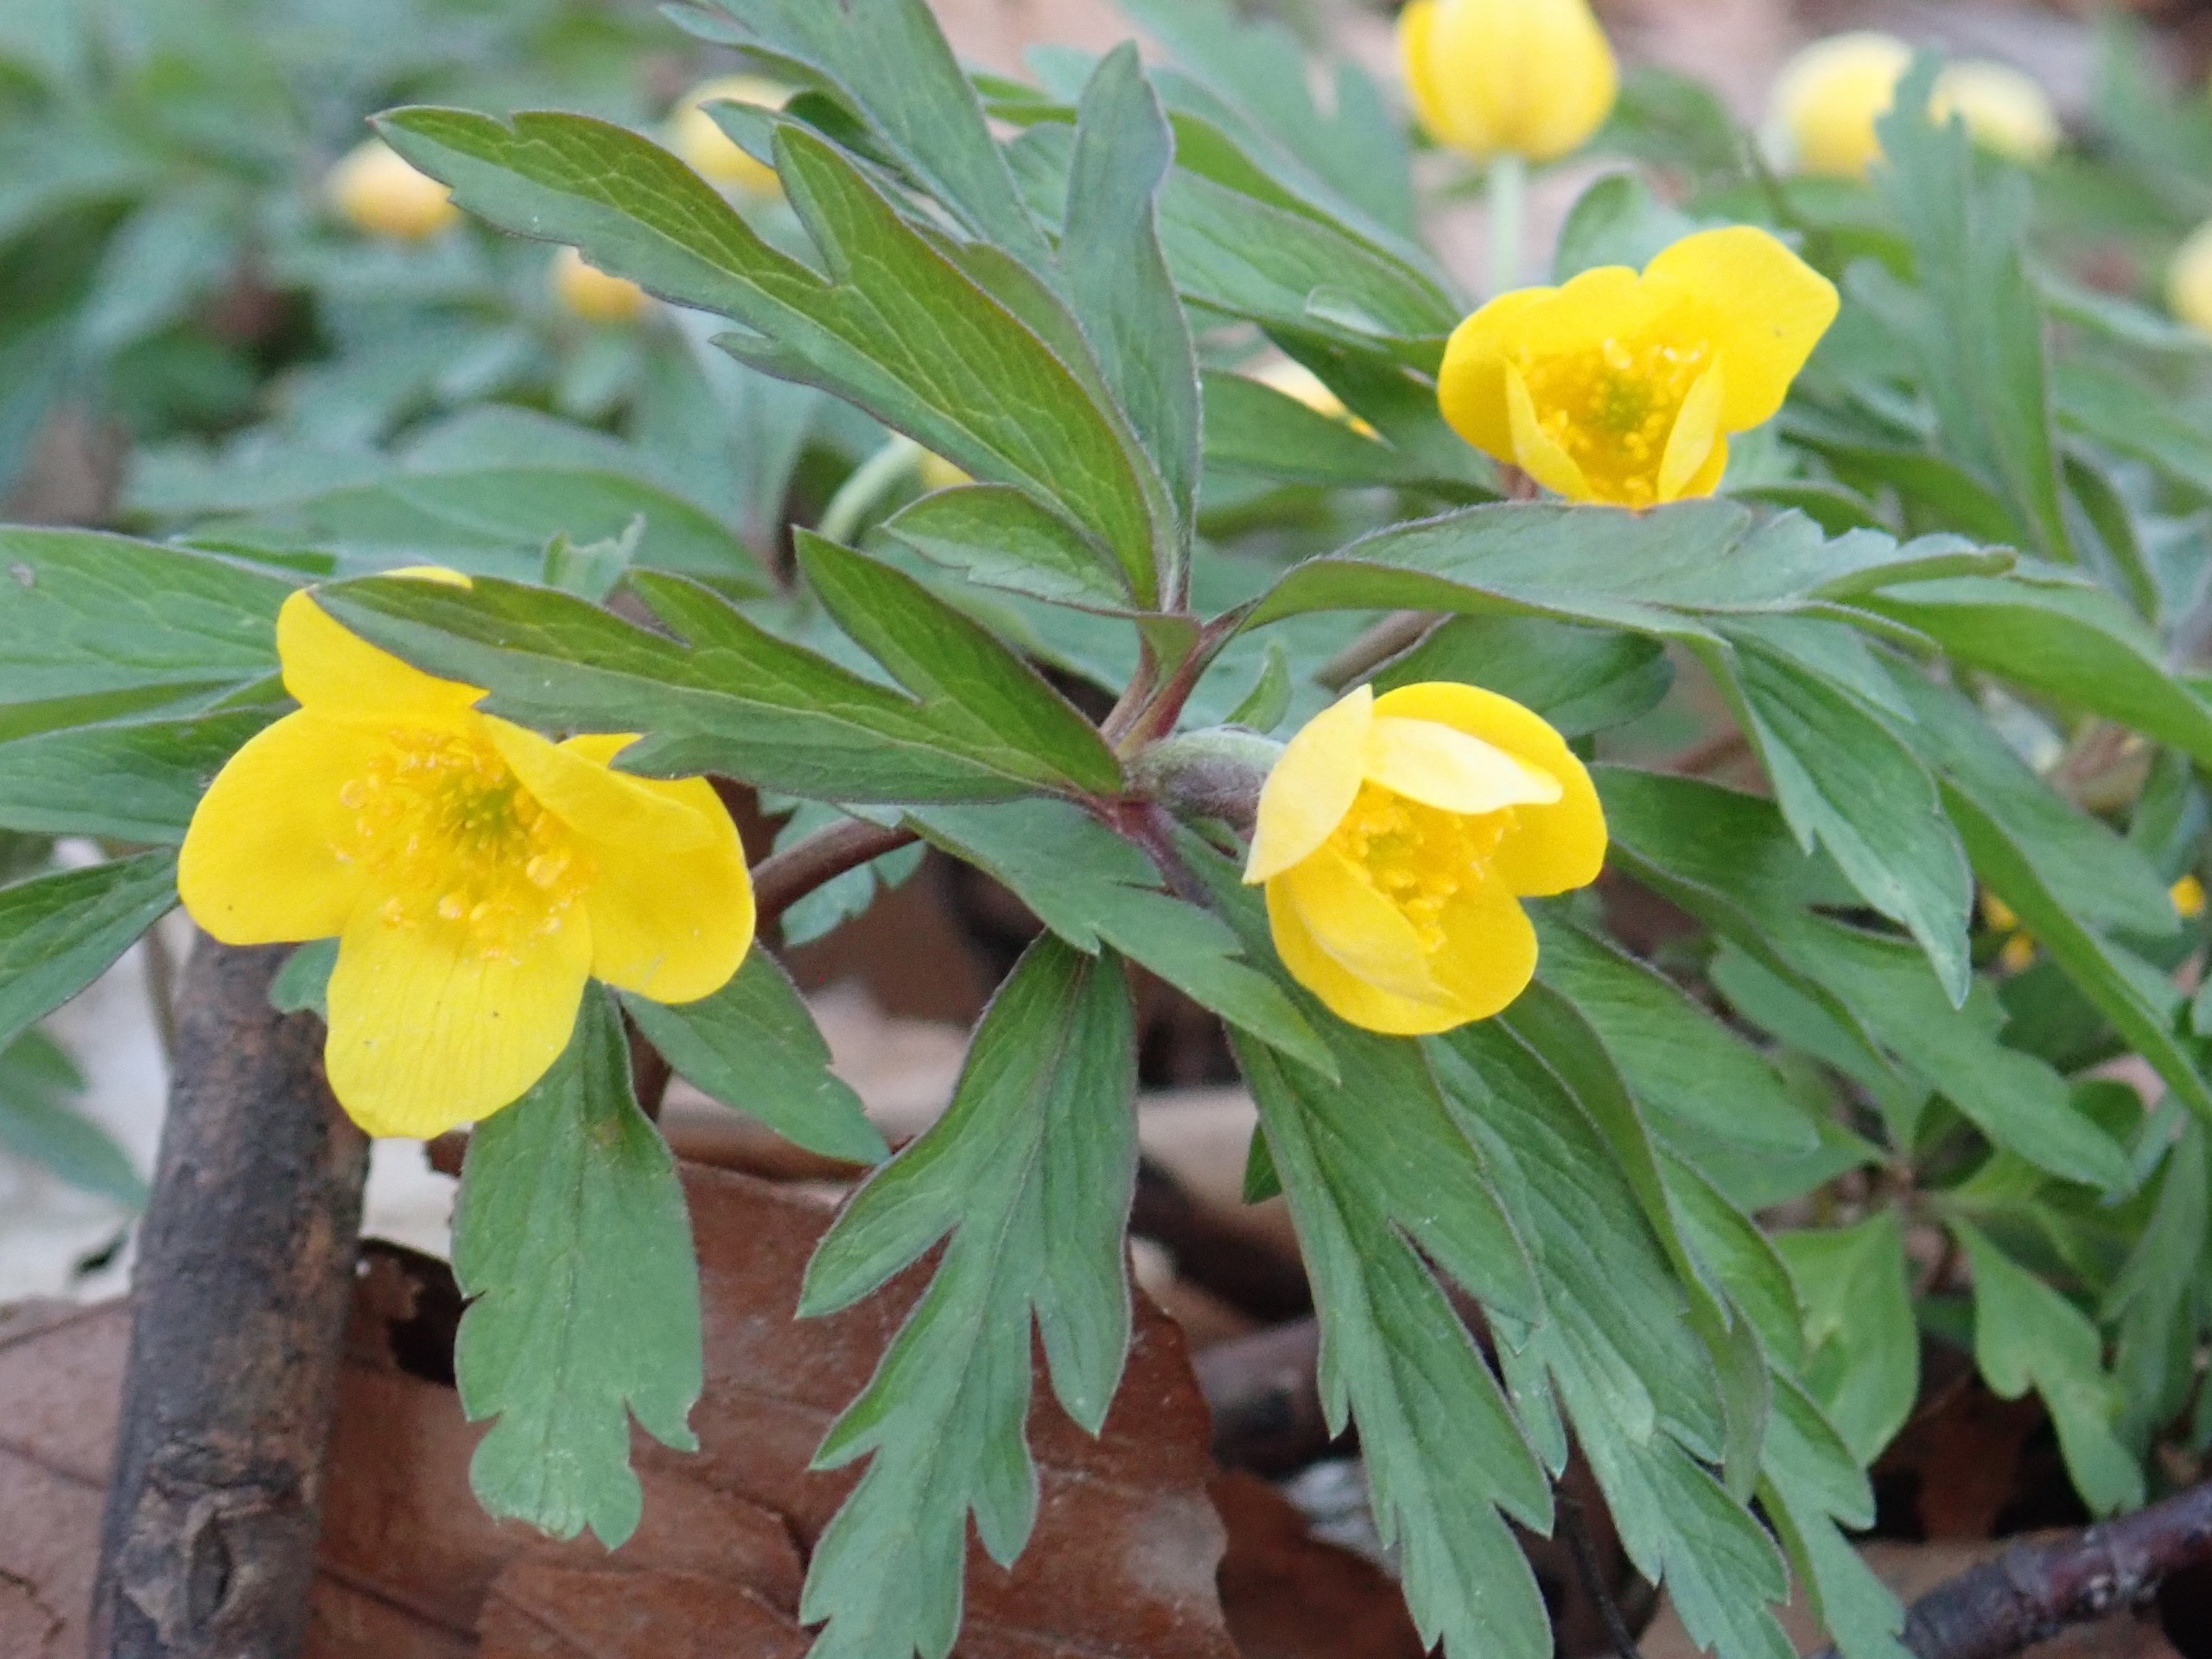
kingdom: Plantae
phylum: Tracheophyta
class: Magnoliopsida
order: Ranunculales
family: Ranunculaceae
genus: Anemone
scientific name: Anemone ranunculoides
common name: Gul anemone
